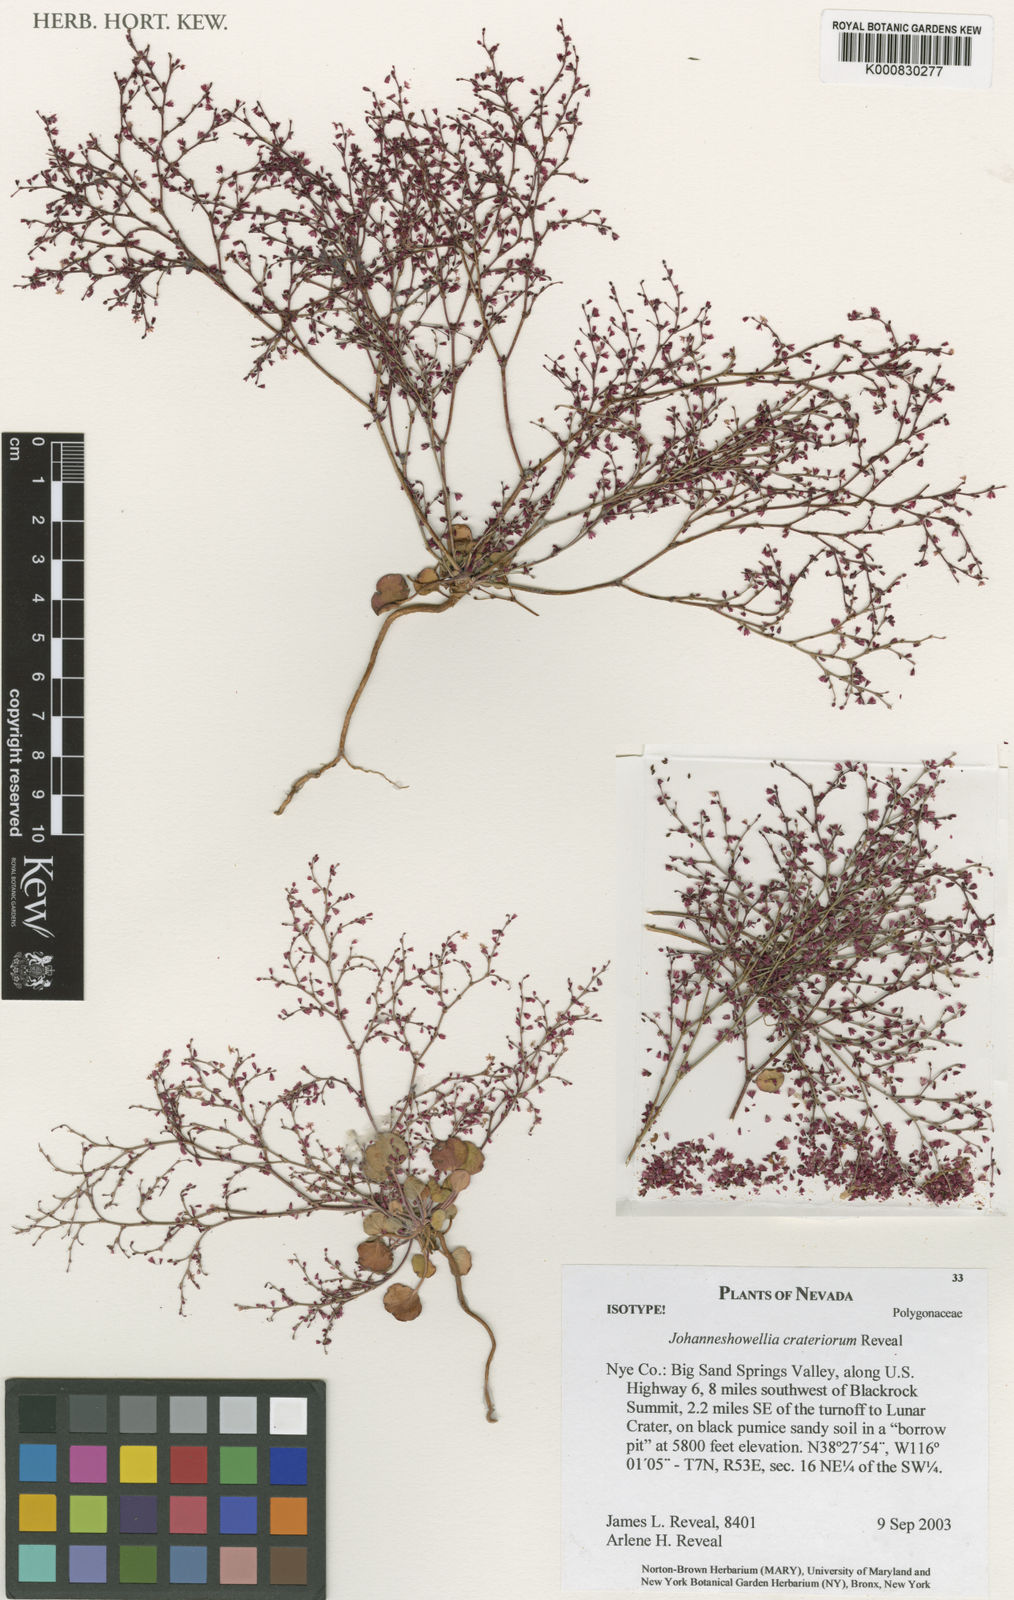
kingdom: Plantae
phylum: Tracheophyta
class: Magnoliopsida
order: Caryophyllales
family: Polygonaceae
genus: Johanneshowellia
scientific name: Johanneshowellia crateriorum
